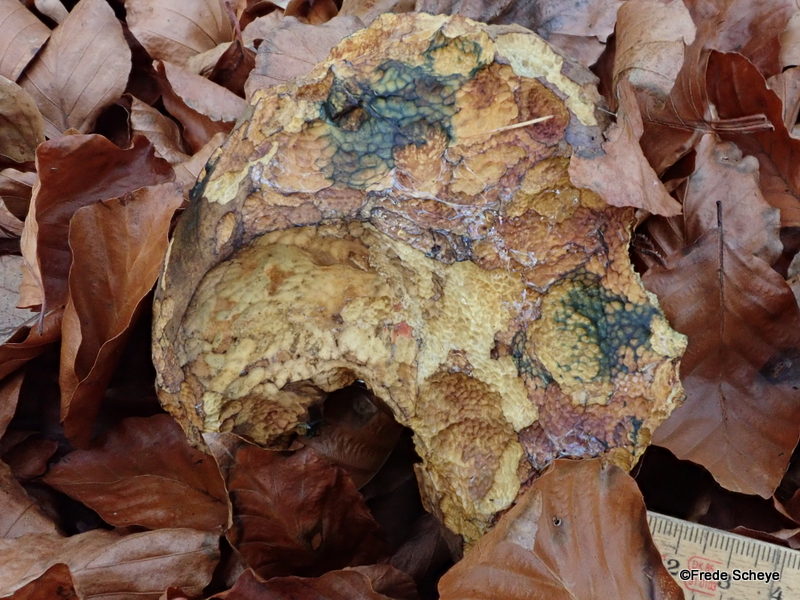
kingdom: Fungi
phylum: Basidiomycota
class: Agaricomycetes
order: Boletales
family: Boletaceae
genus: Neoboletus
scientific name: Neoboletus erythropus
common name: punktstokket indigorørhat
